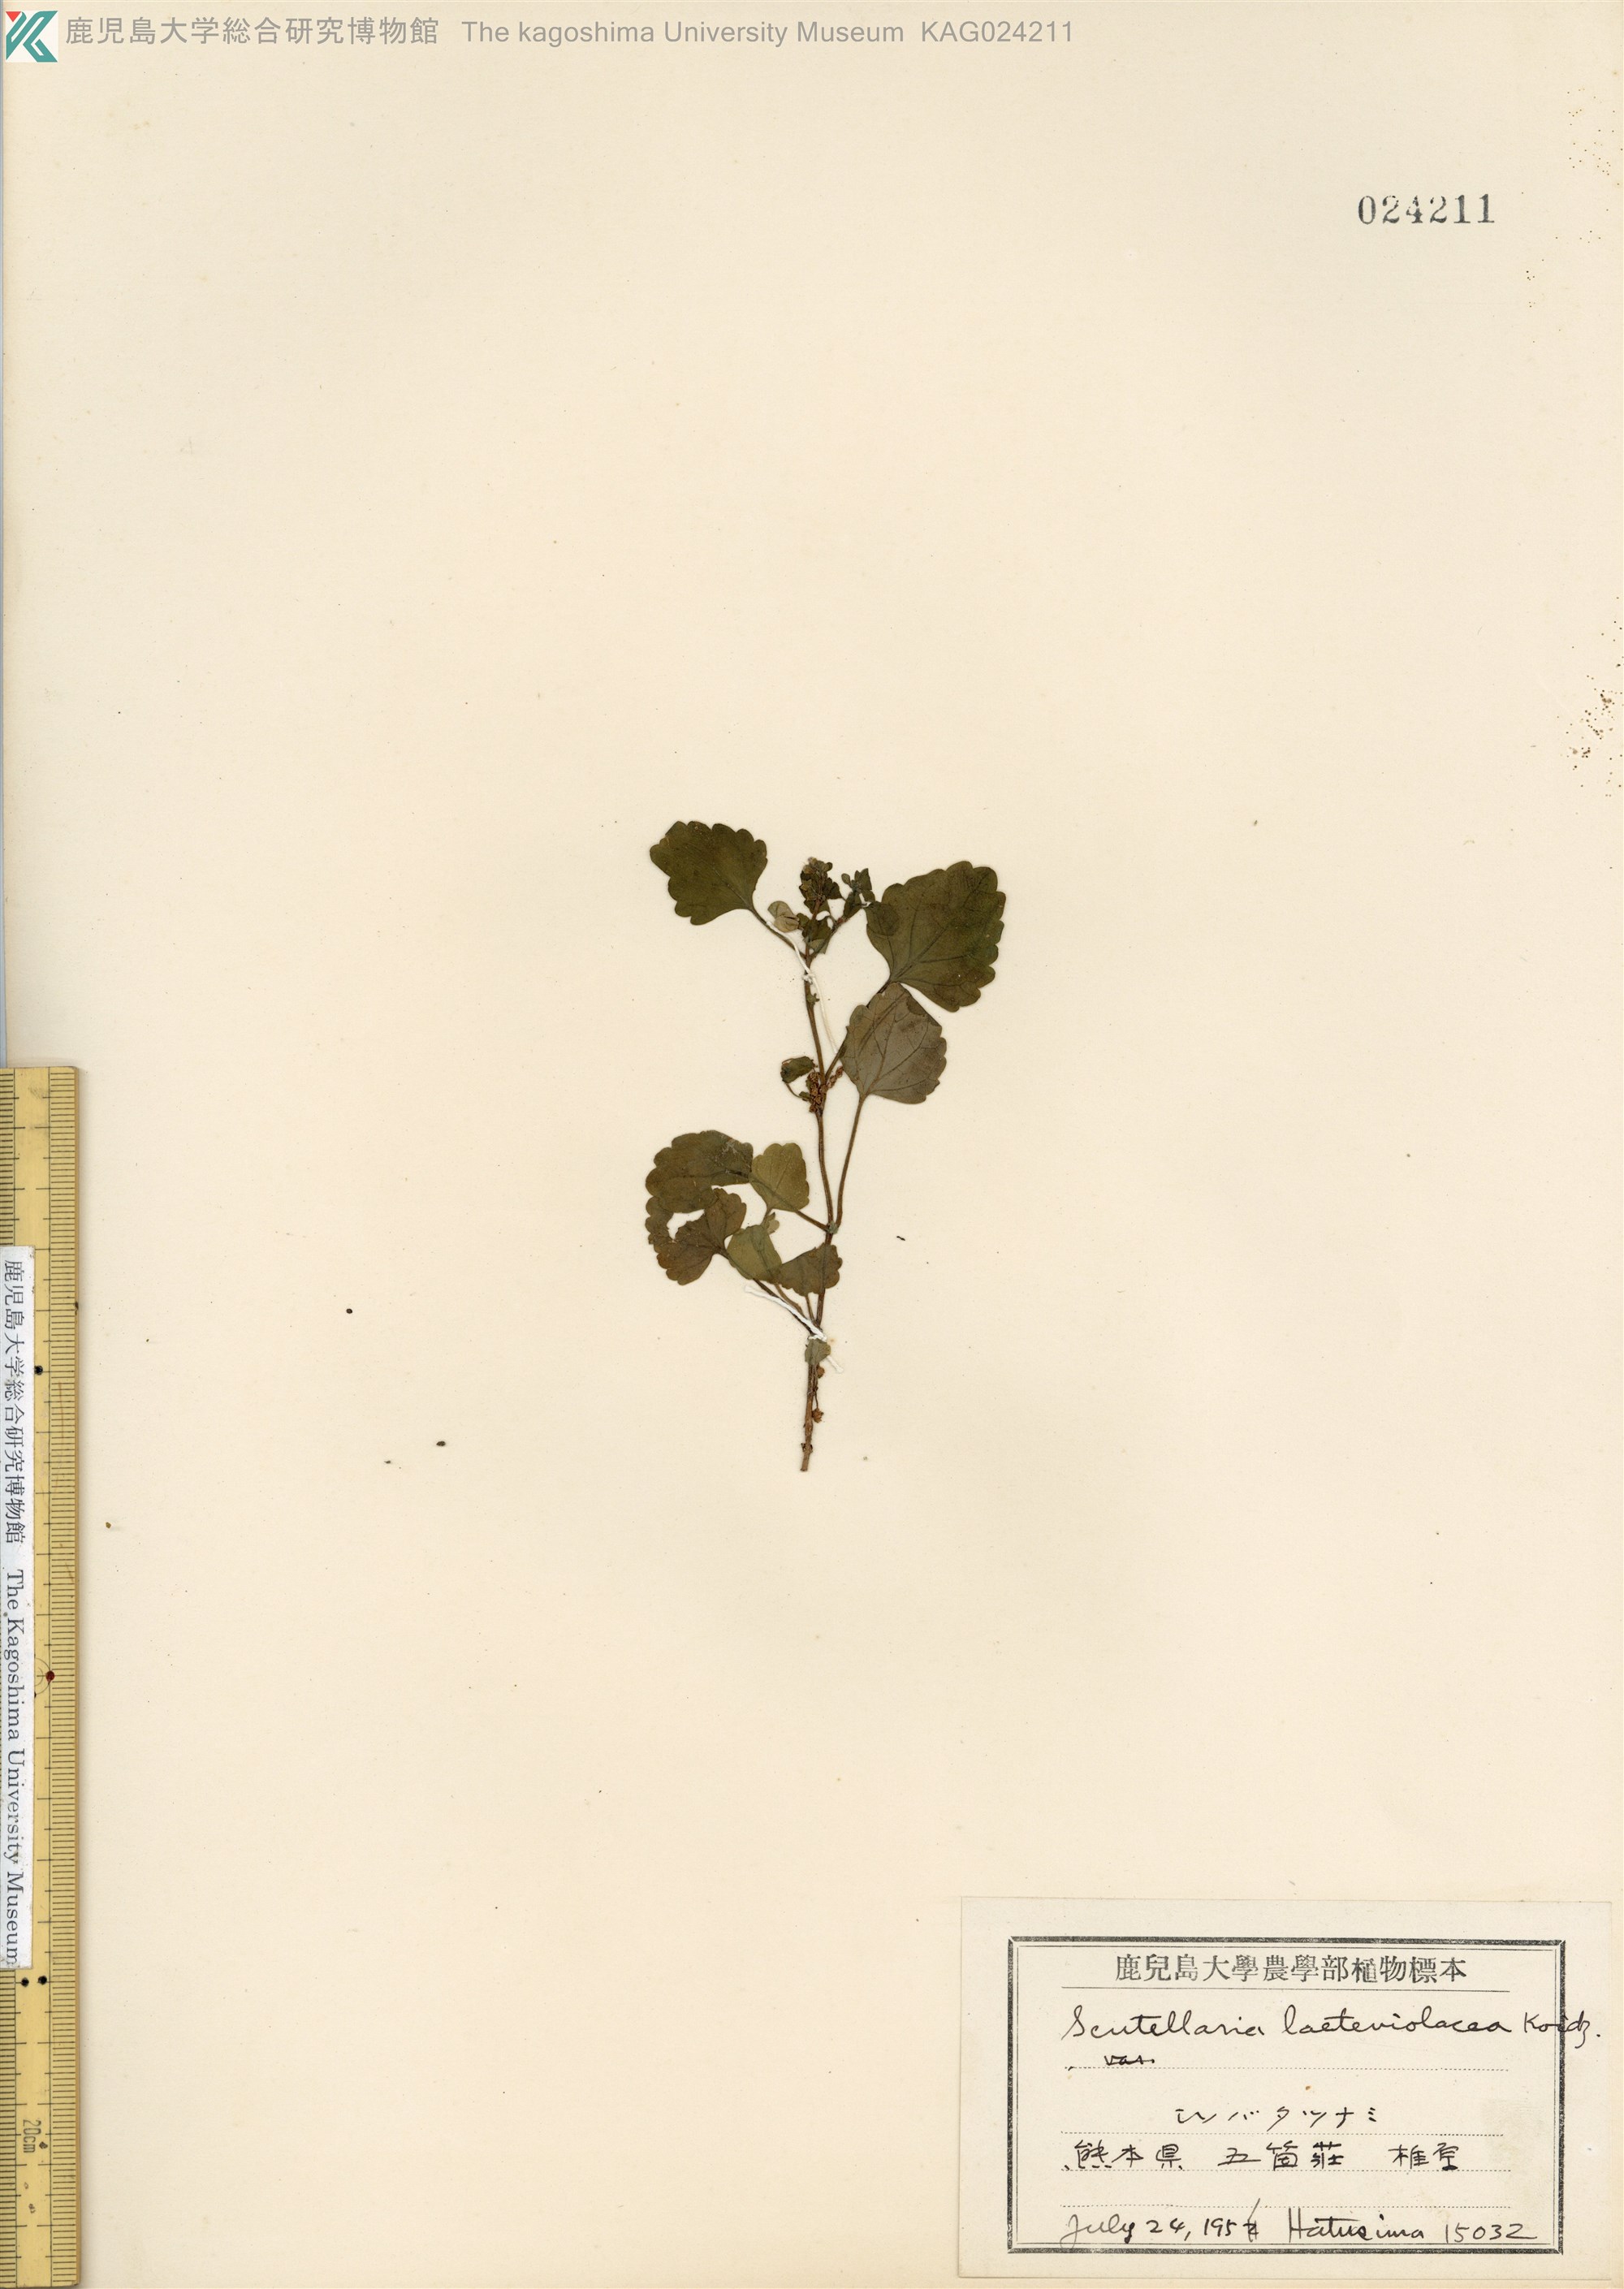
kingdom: Plantae
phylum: Tracheophyta
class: Magnoliopsida
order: Lamiales
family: Lamiaceae
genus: Scutellaria
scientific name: Scutellaria laeteviolacea
